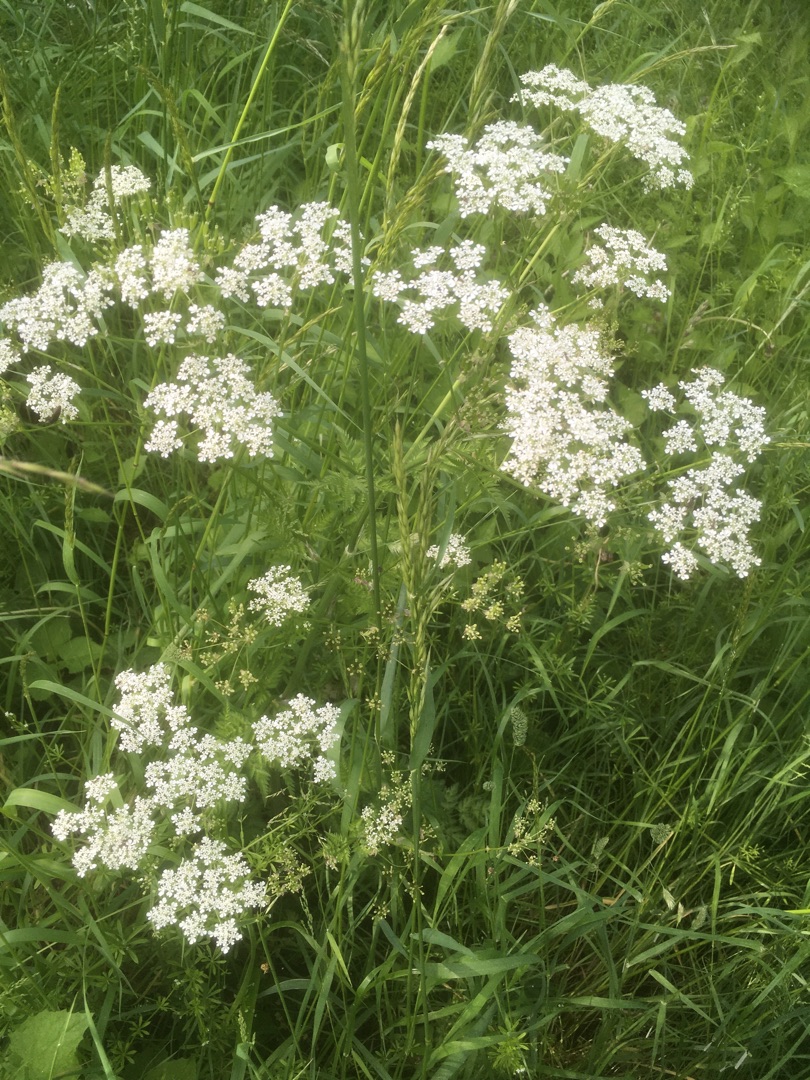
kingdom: Plantae
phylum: Tracheophyta
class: Magnoliopsida
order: Apiales
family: Apiaceae
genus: Anthriscus
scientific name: Anthriscus sylvestris
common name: Vild kørvel
